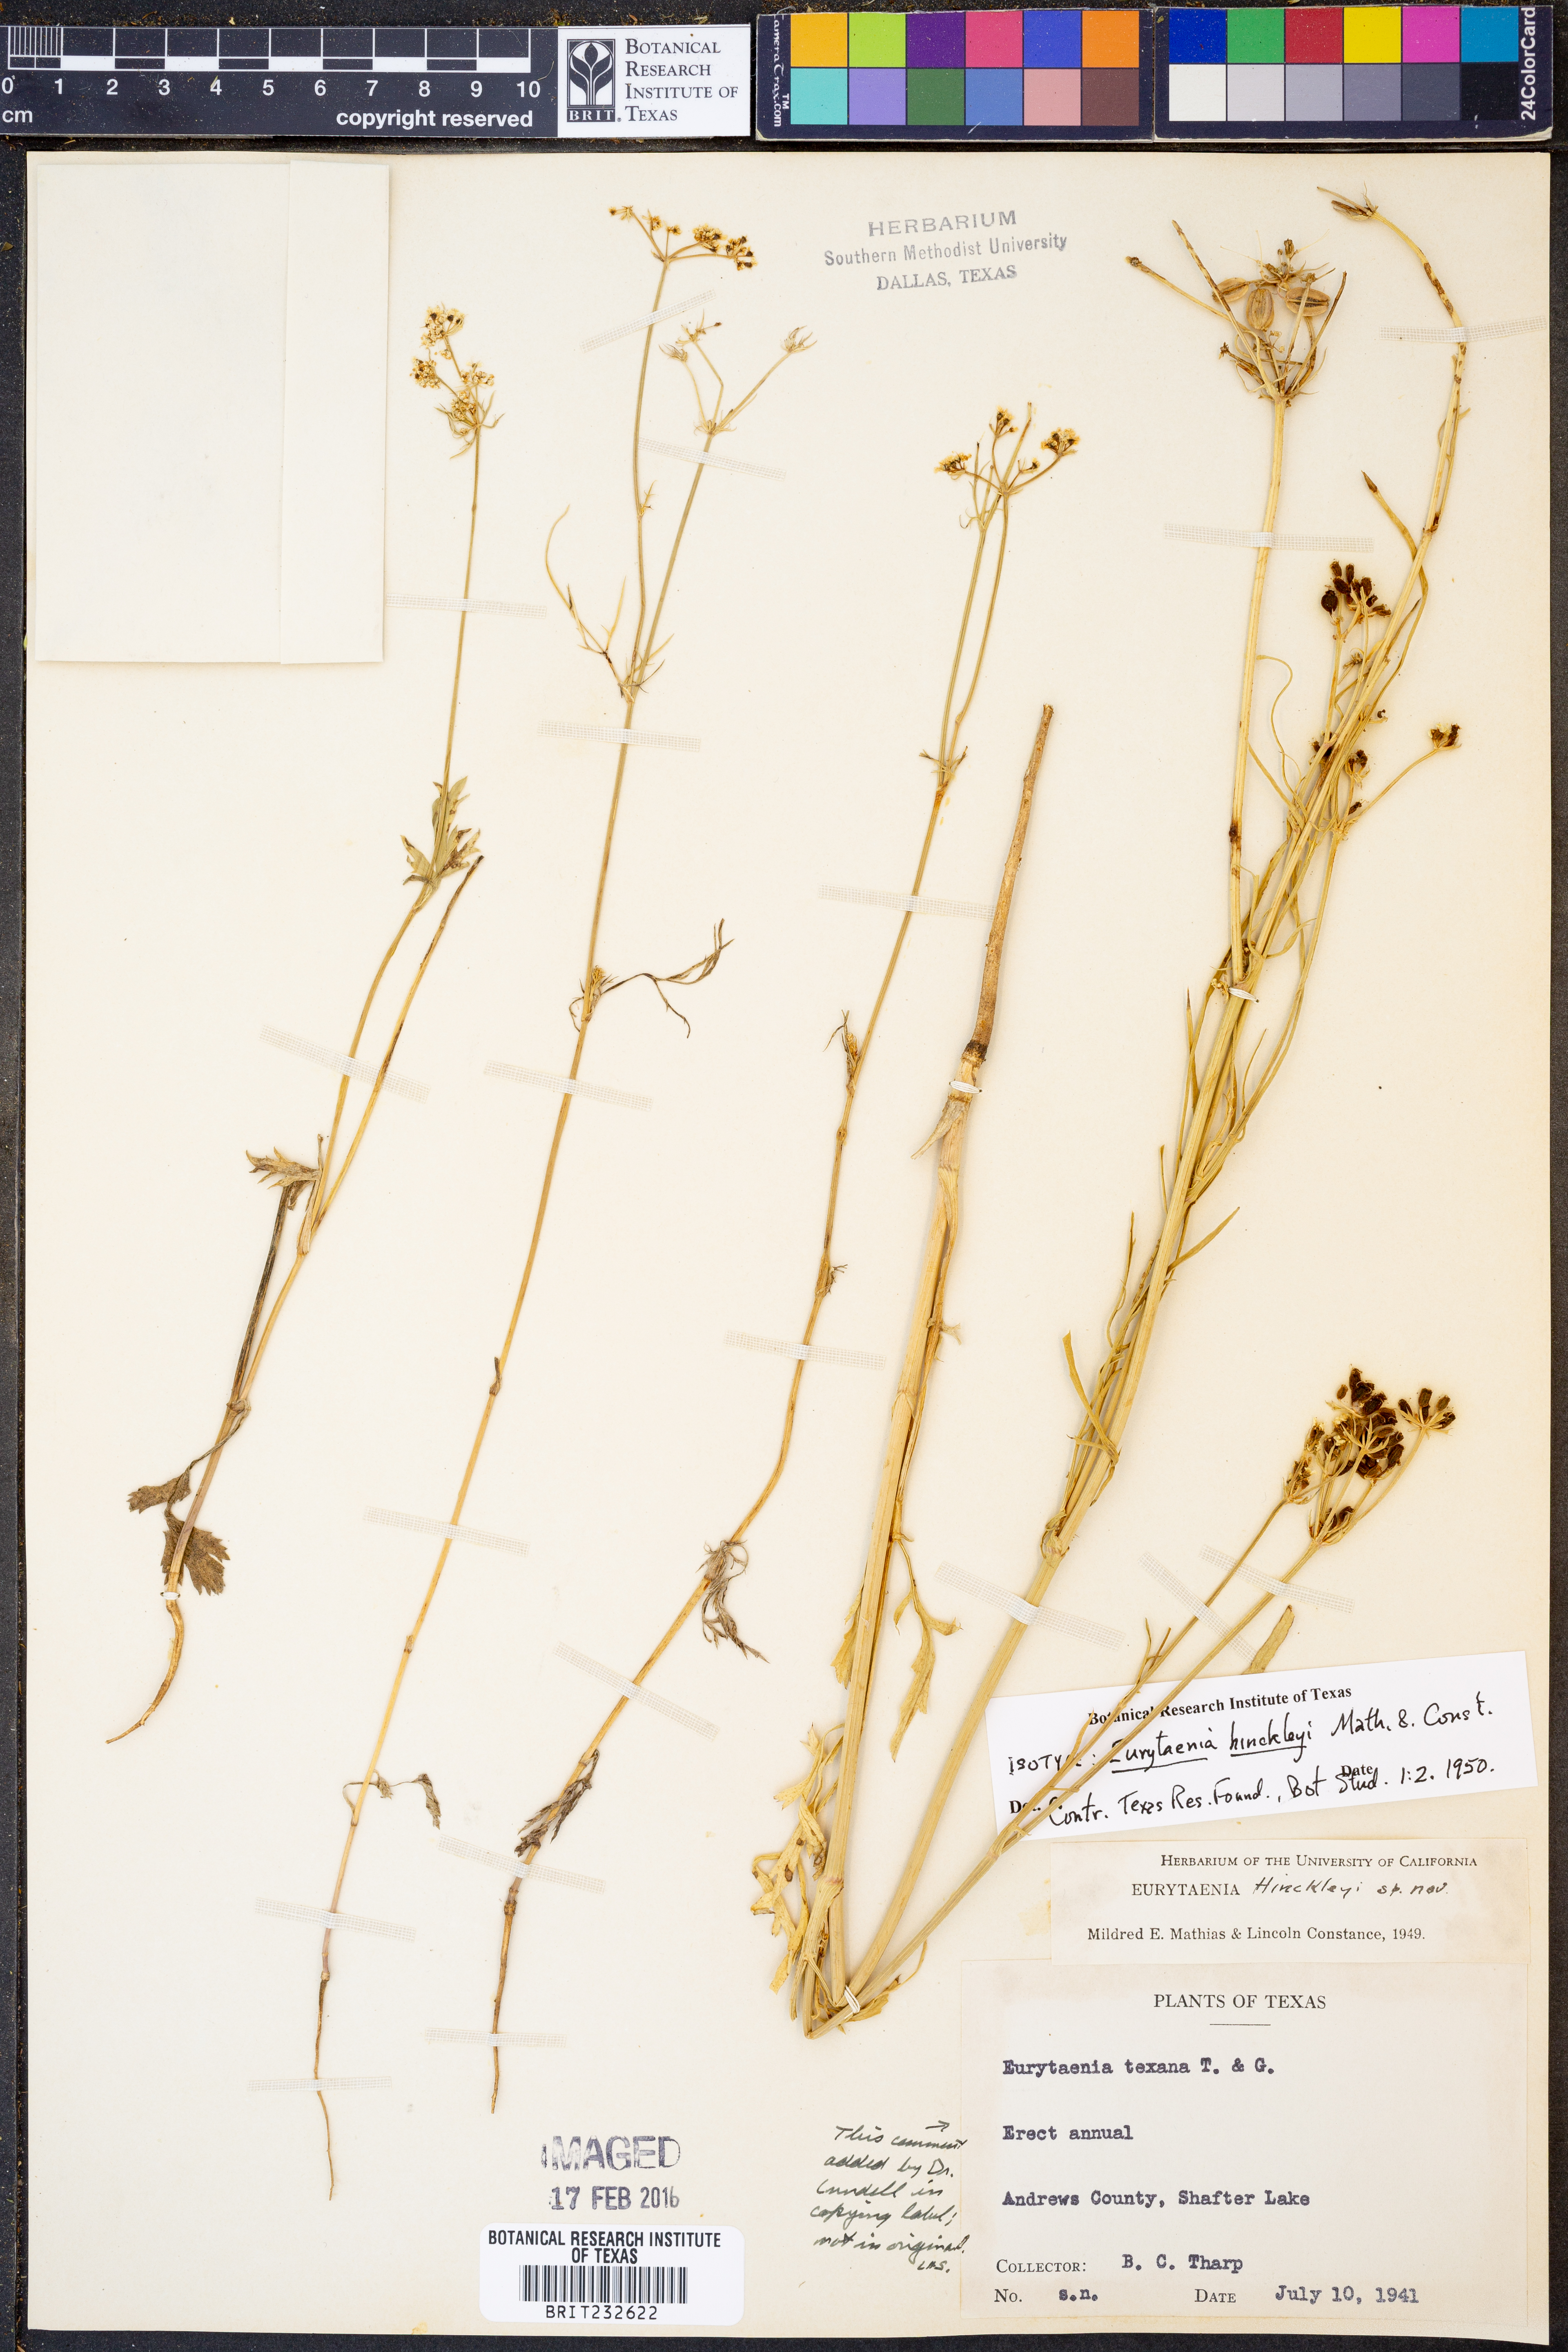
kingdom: Plantae
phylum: Tracheophyta
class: Magnoliopsida
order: Apiales
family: Apiaceae
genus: Eurytaenia
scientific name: Eurytaenia hinckleyi
